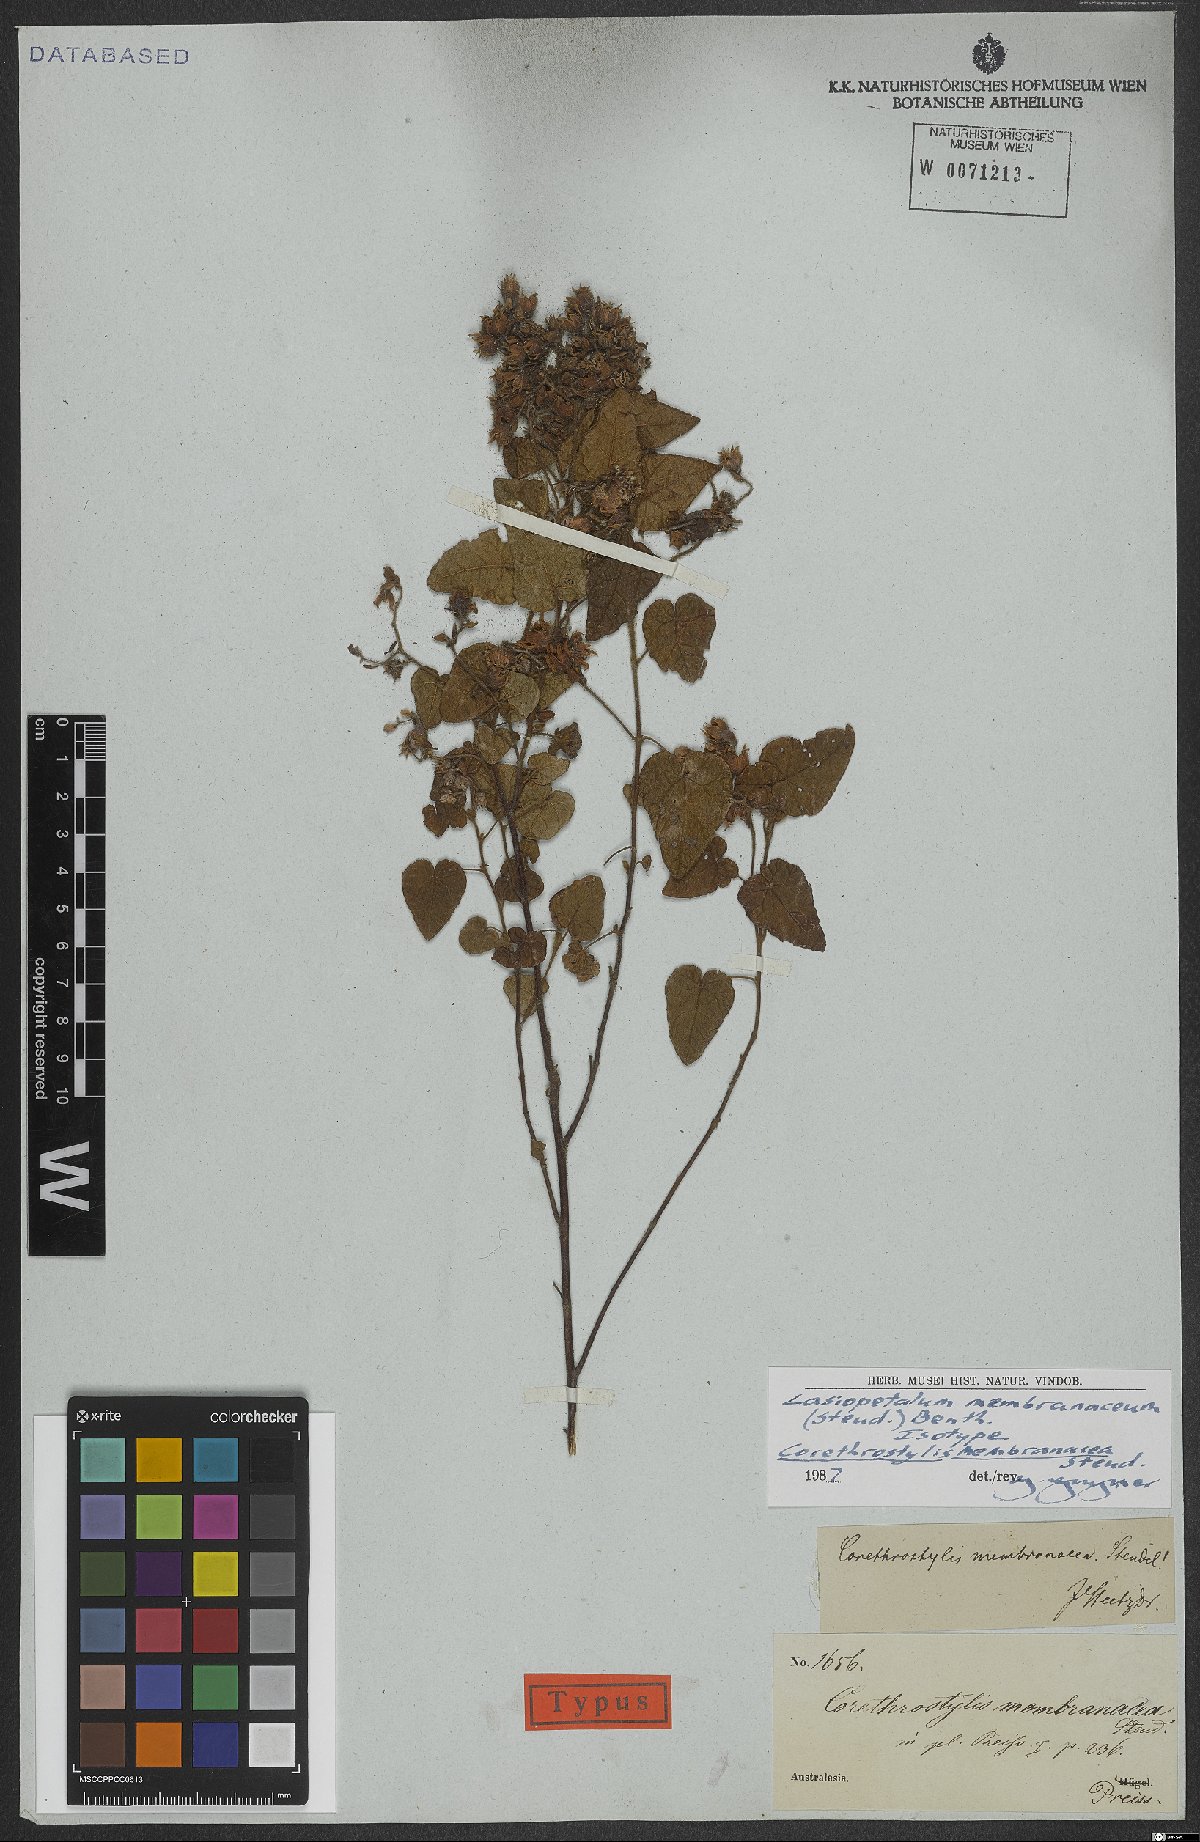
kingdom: Plantae
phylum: Tracheophyta
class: Magnoliopsida
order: Malvales
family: Malvaceae
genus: Lasiopetalum
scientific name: Lasiopetalum membranaceum
